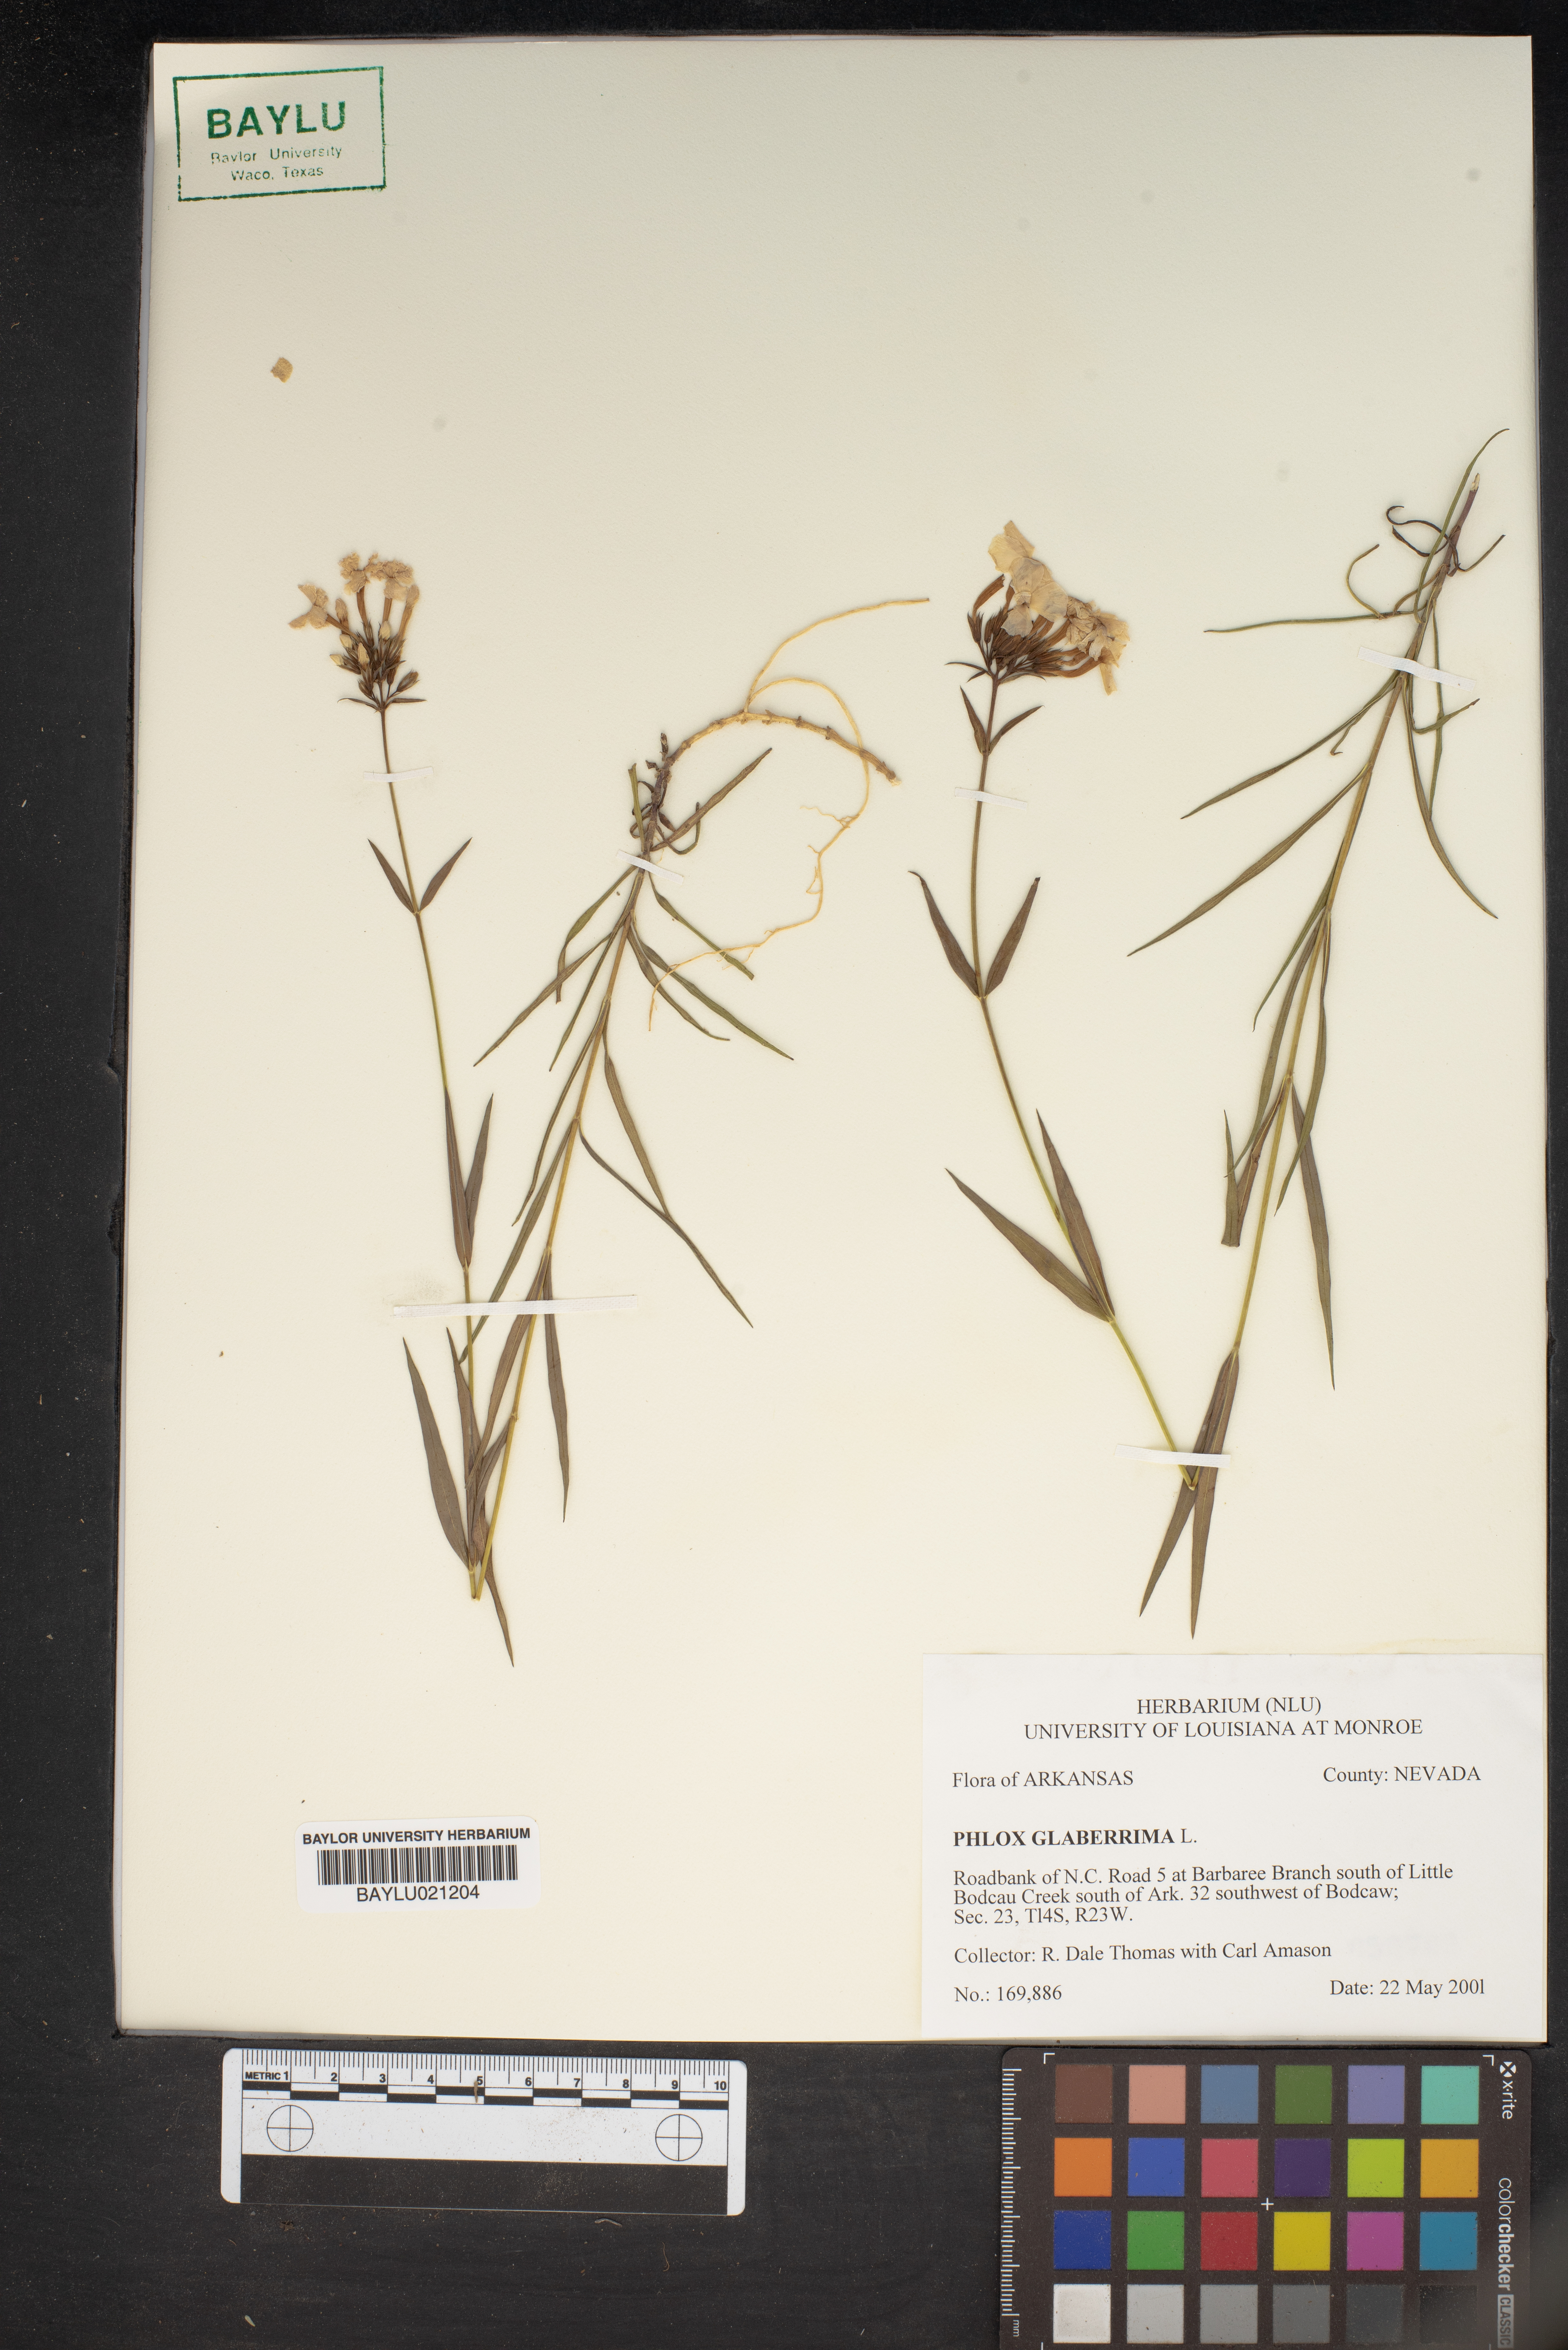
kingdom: Plantae
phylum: Tracheophyta
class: Magnoliopsida
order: Ericales
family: Polemoniaceae
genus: Phlox
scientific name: Phlox glaberrima
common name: Smooth phlox
